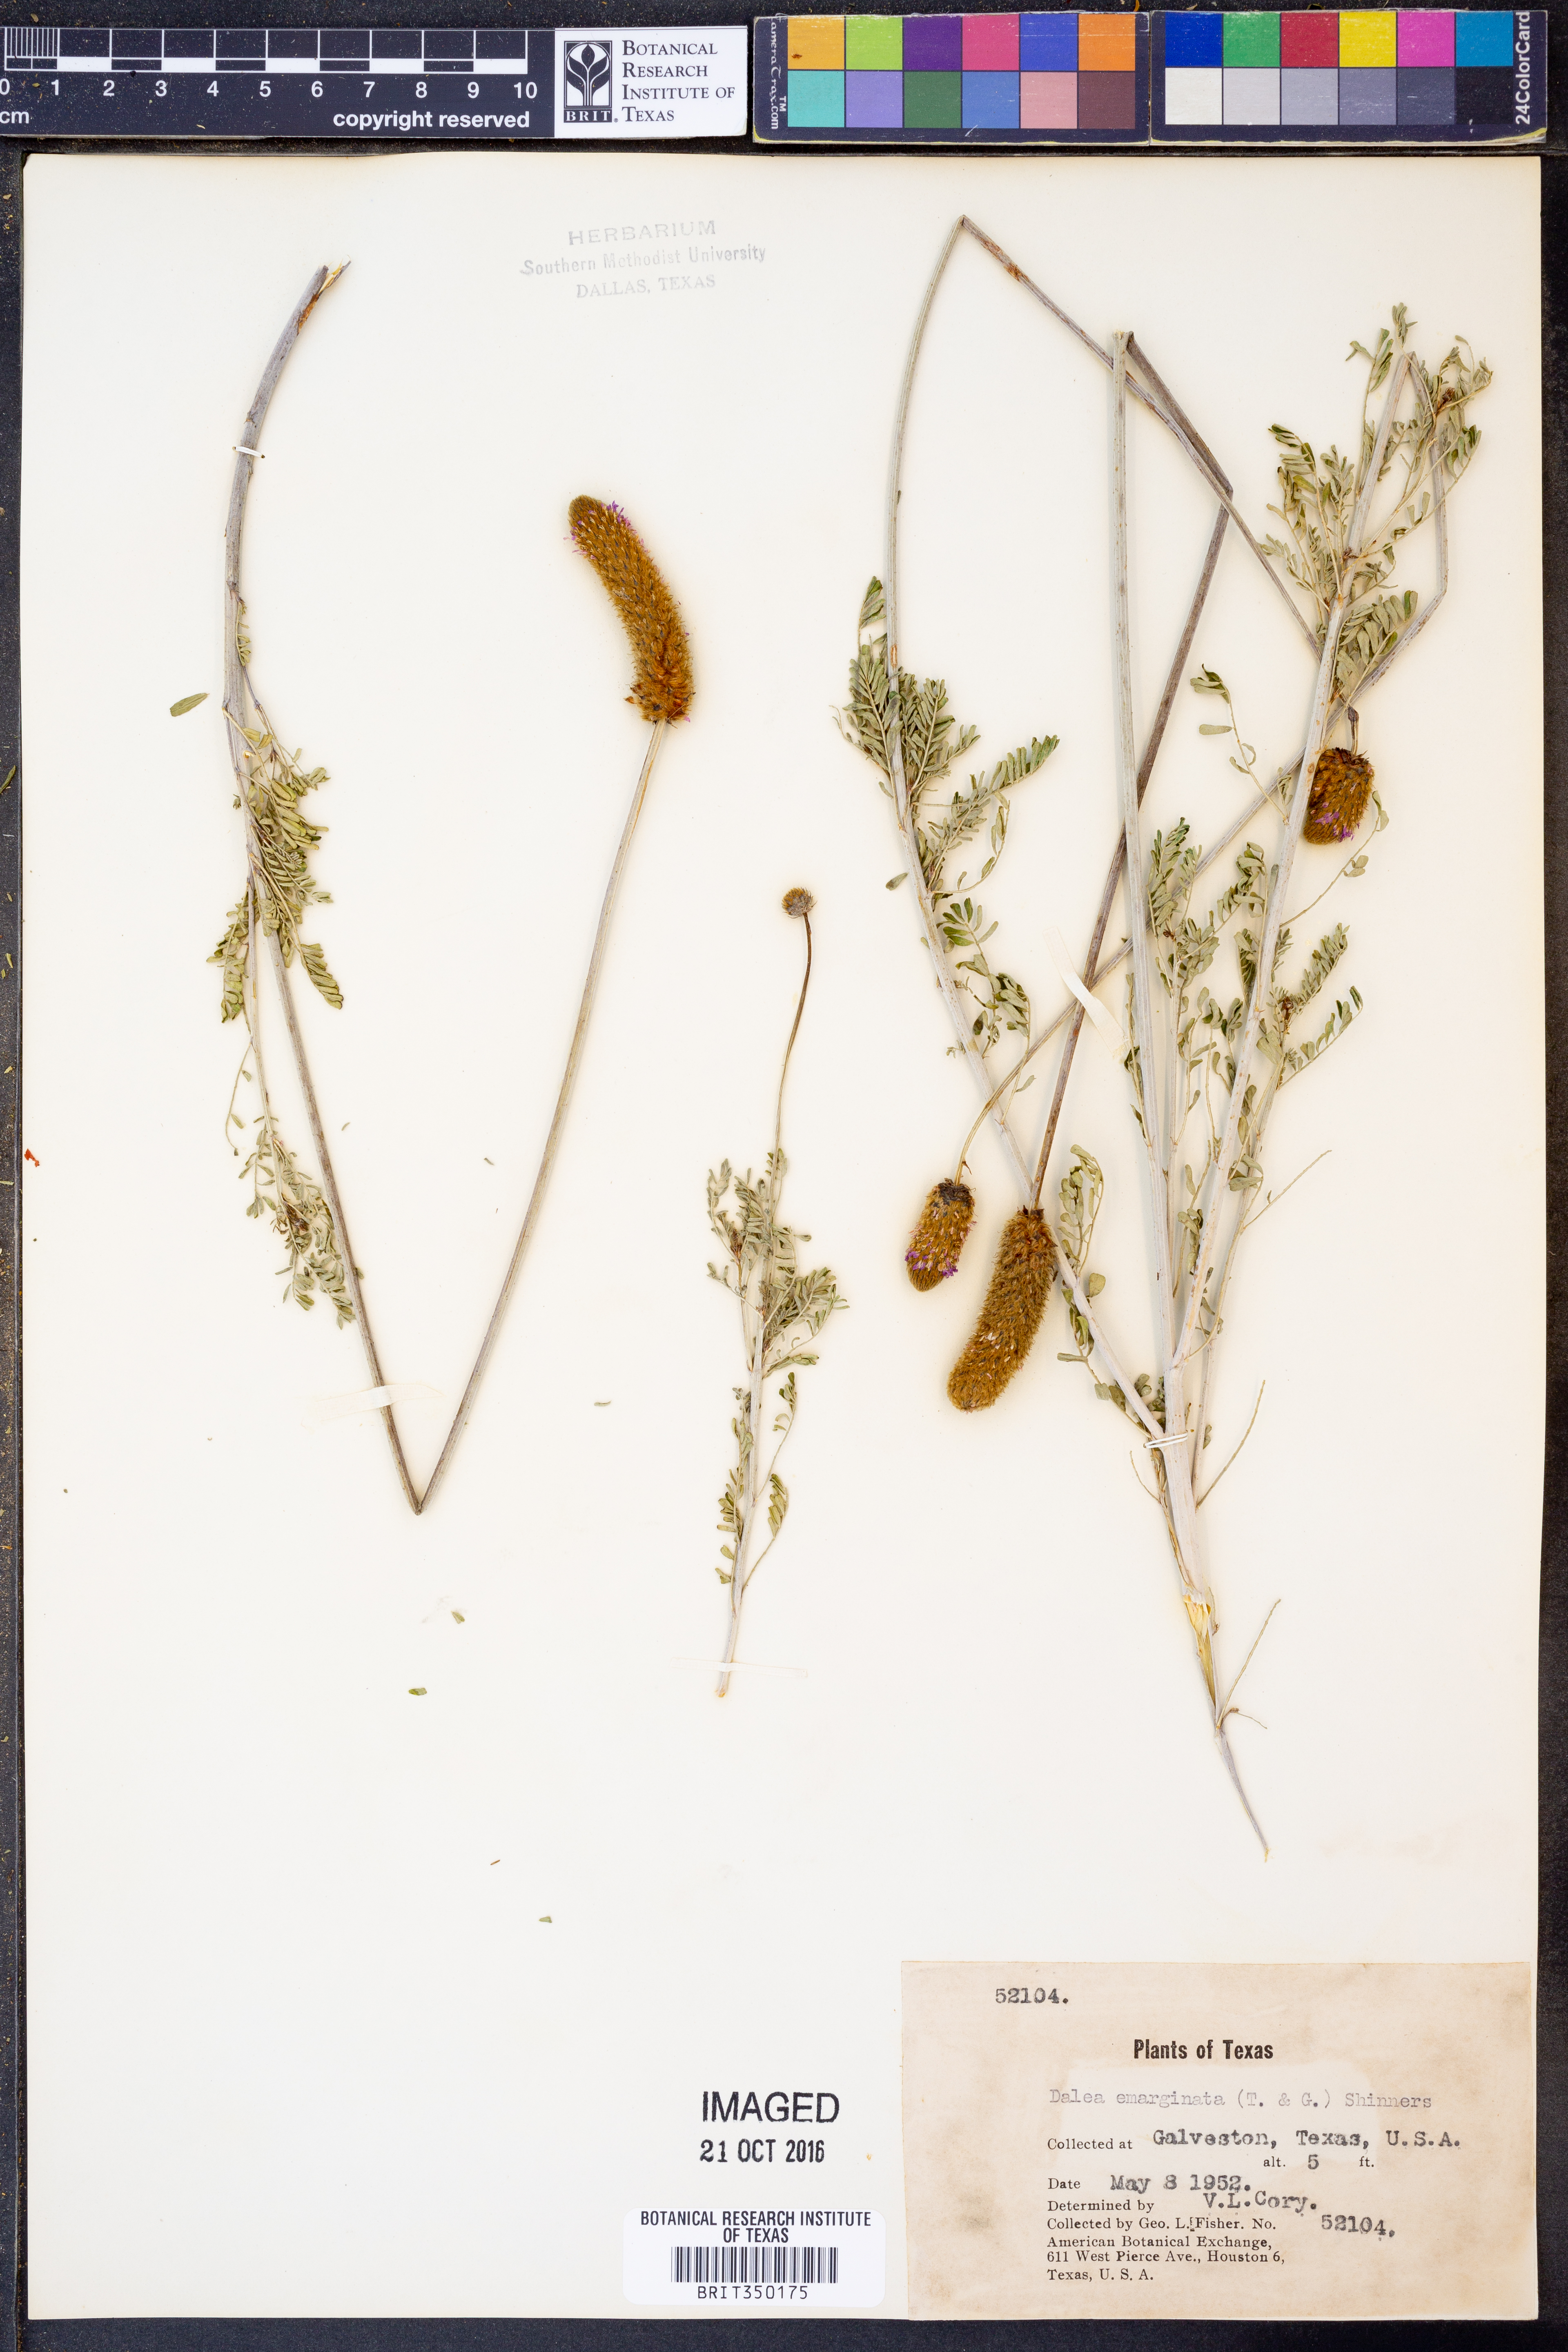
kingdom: Plantae
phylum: Tracheophyta
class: Magnoliopsida
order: Fabales
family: Fabaceae
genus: Dalea
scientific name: Dalea emarginata
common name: Wedgeleaf prairie clover
